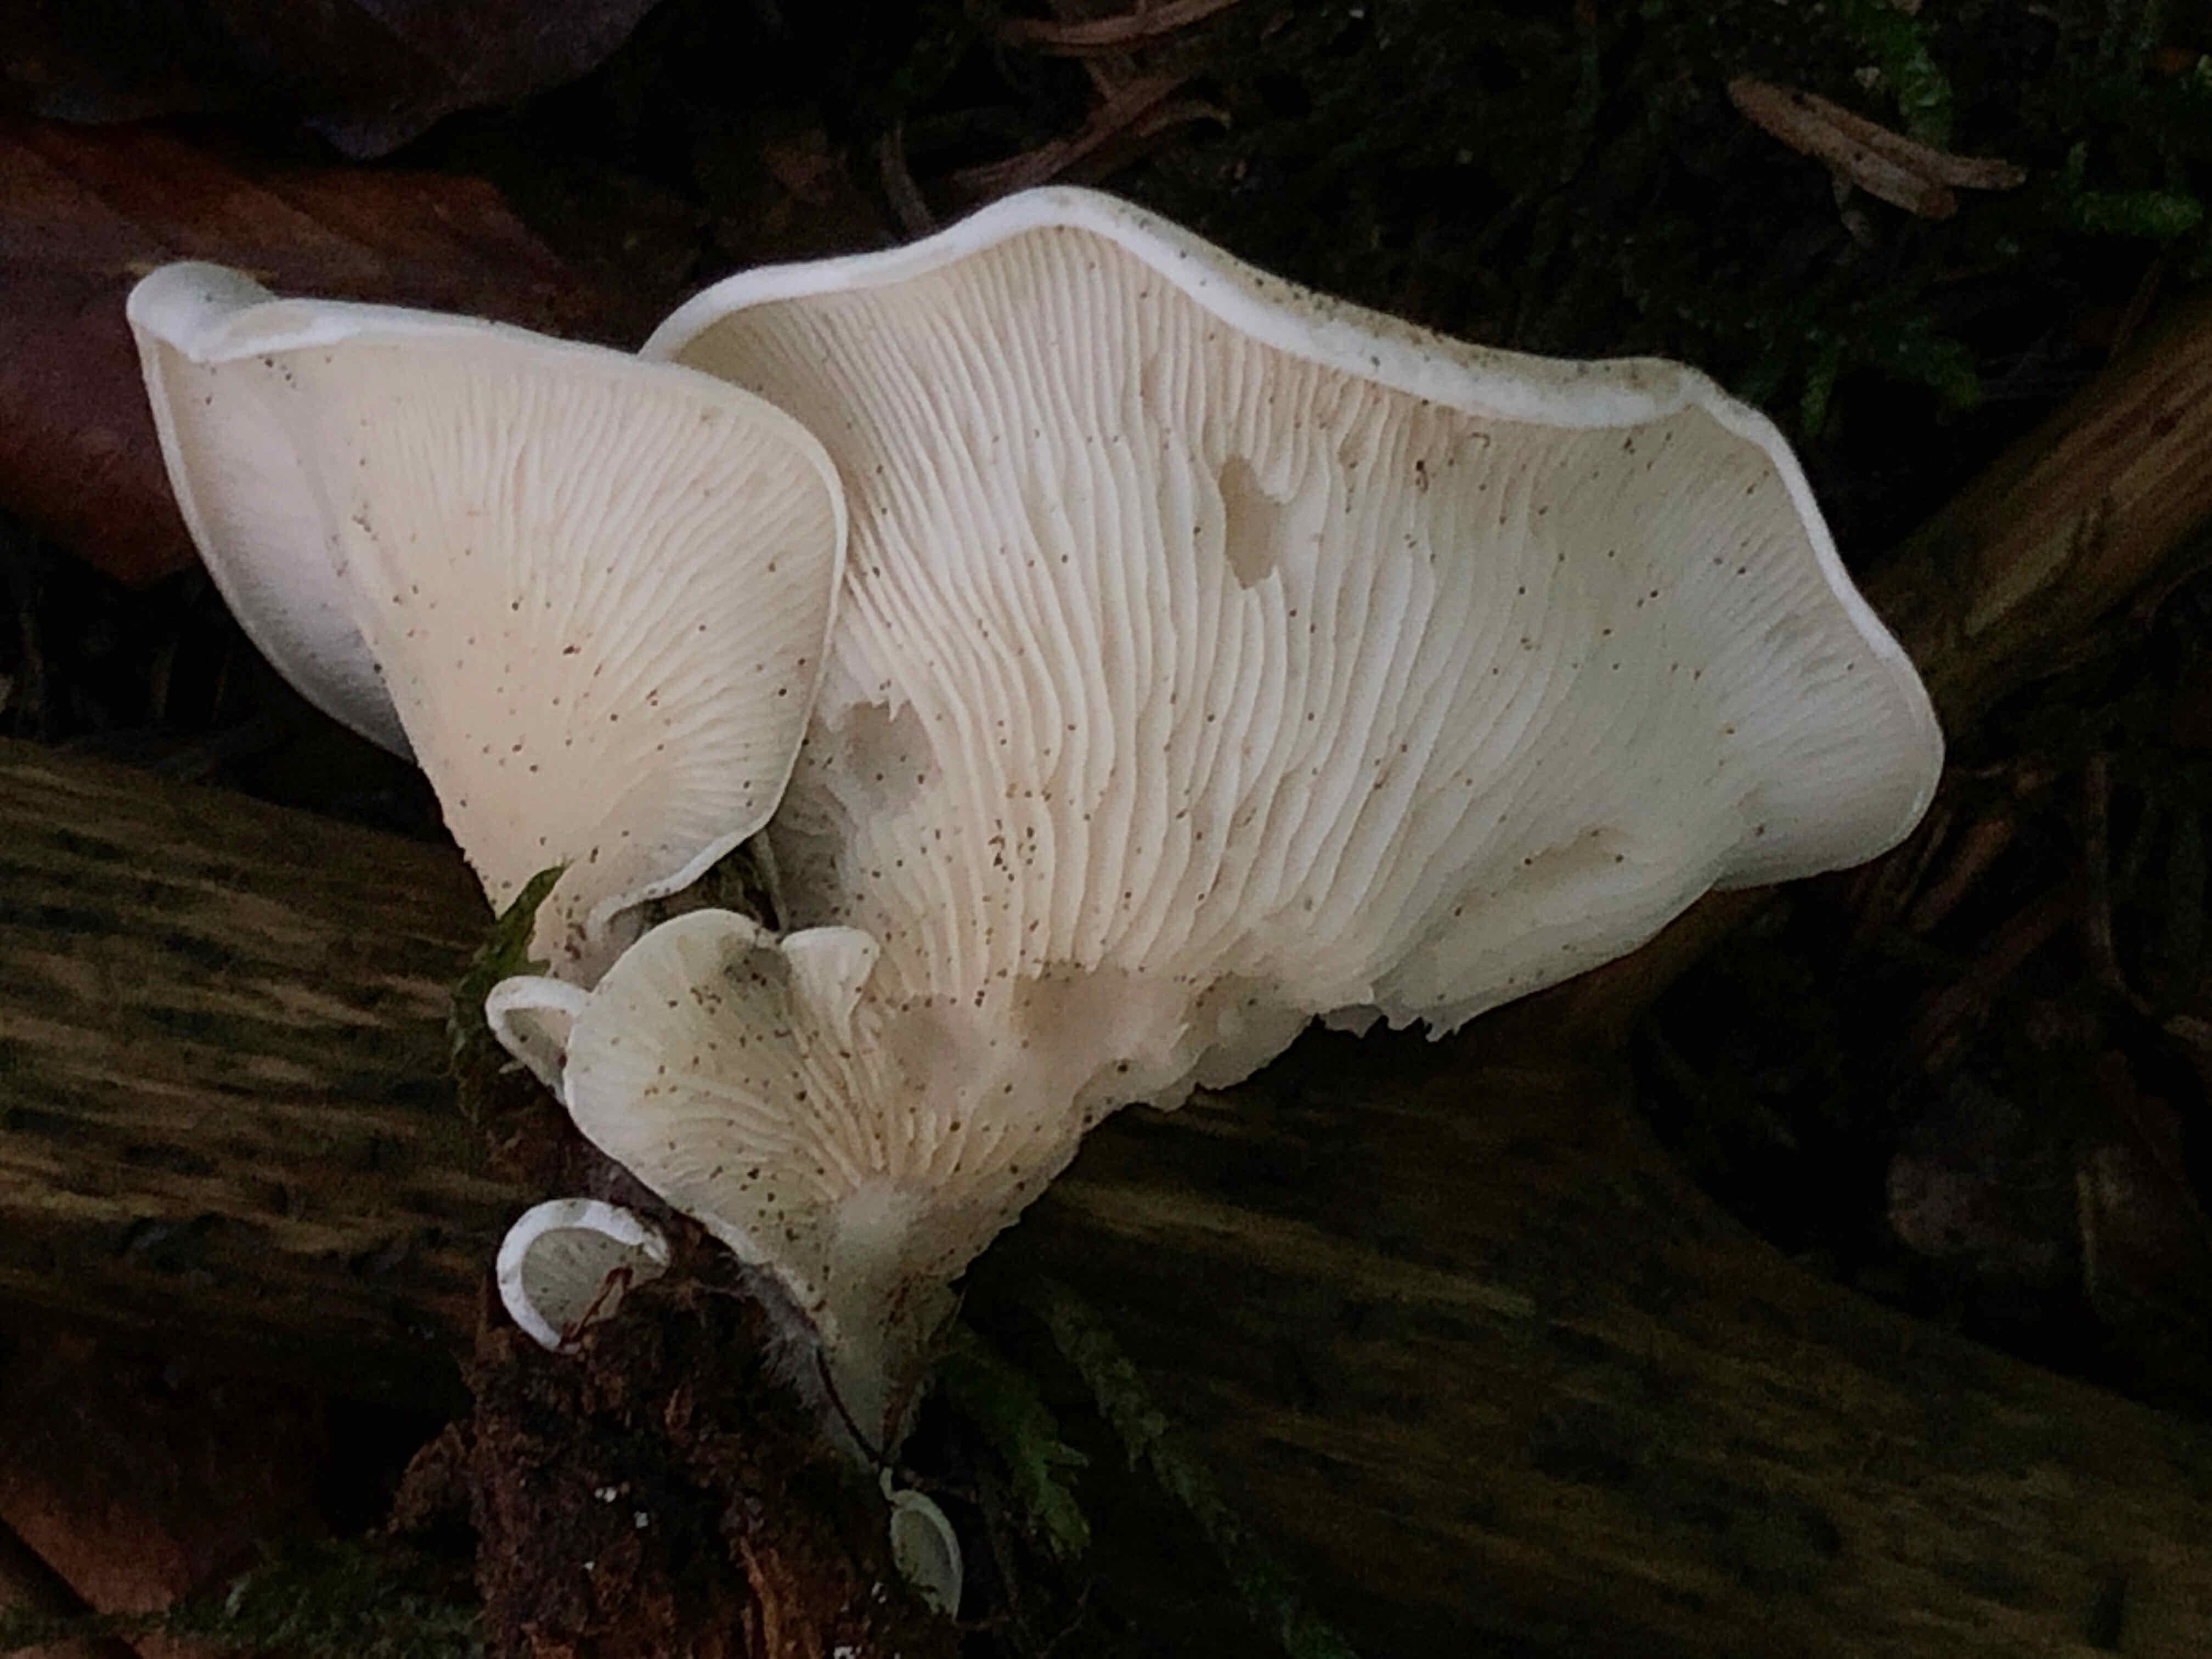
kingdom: Fungi
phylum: Basidiomycota
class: Agaricomycetes
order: Agaricales
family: Marasmiaceae
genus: Pleurocybella
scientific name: Pleurocybella porrigens
